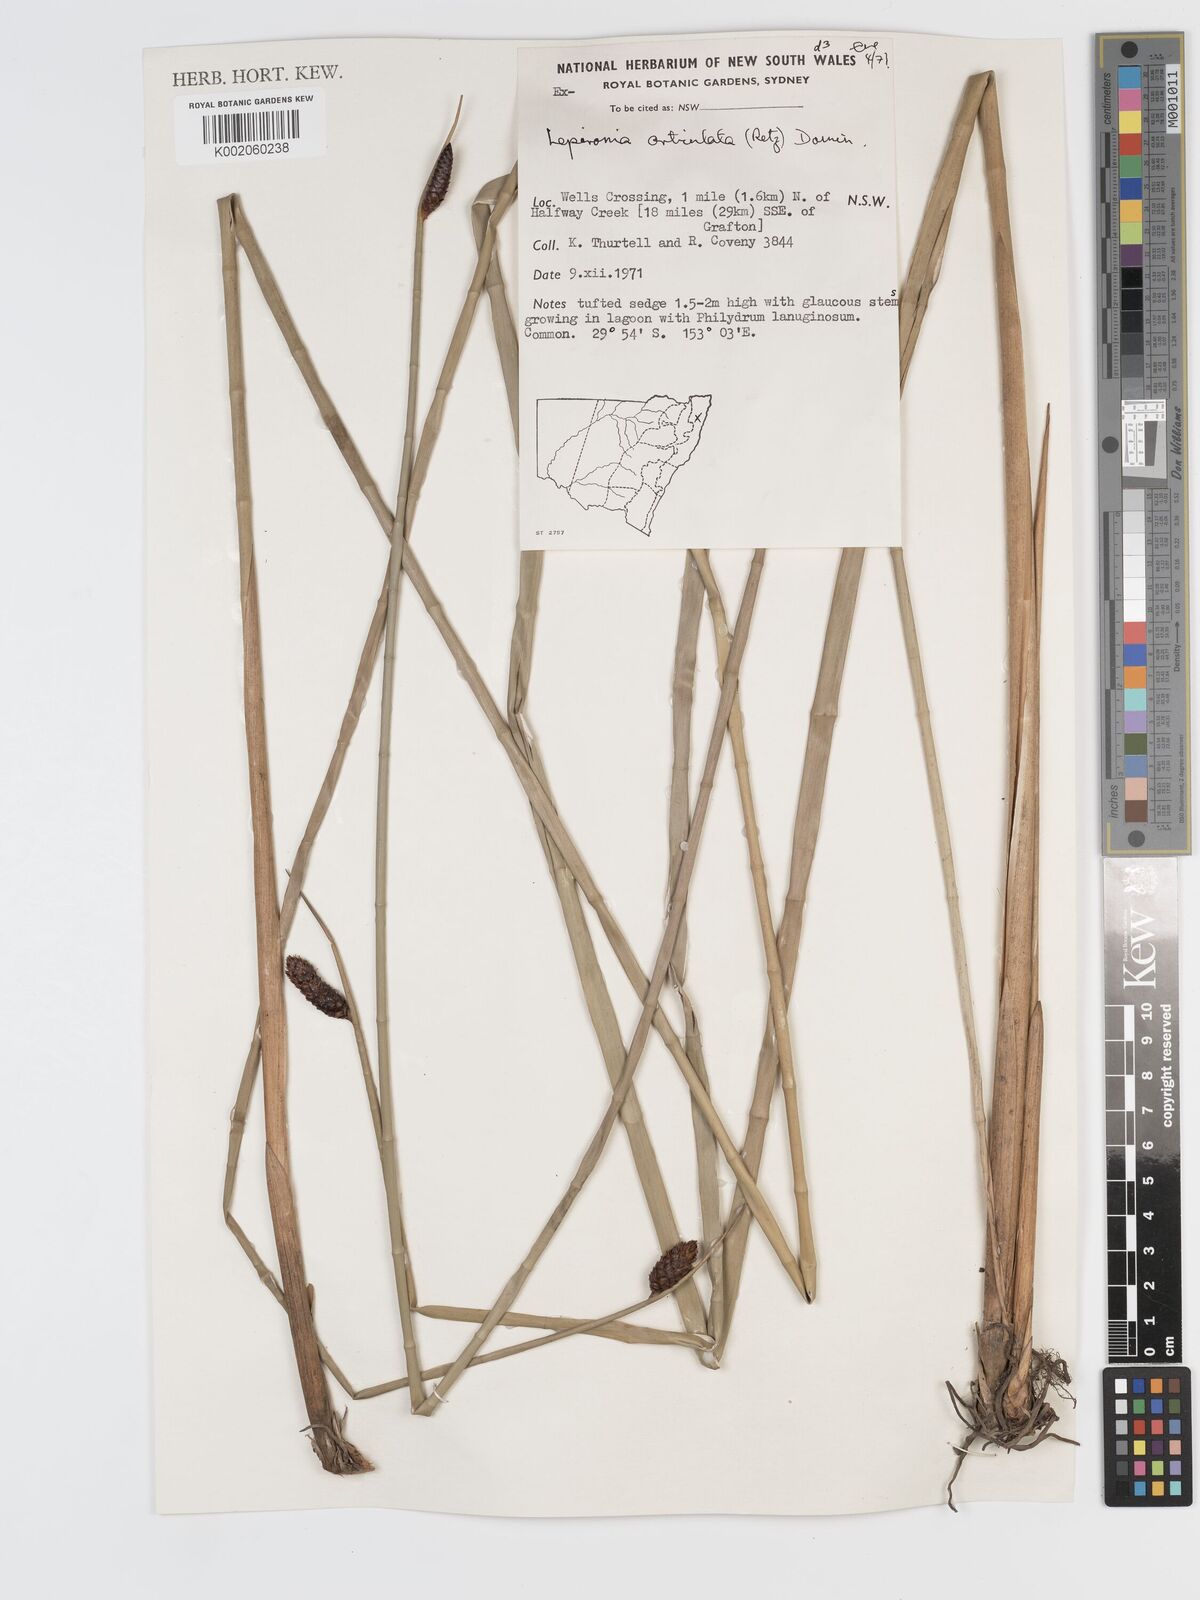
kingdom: Plantae
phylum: Tracheophyta
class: Liliopsida
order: Poales
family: Cyperaceae
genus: Lepironia
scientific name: Lepironia articulata
